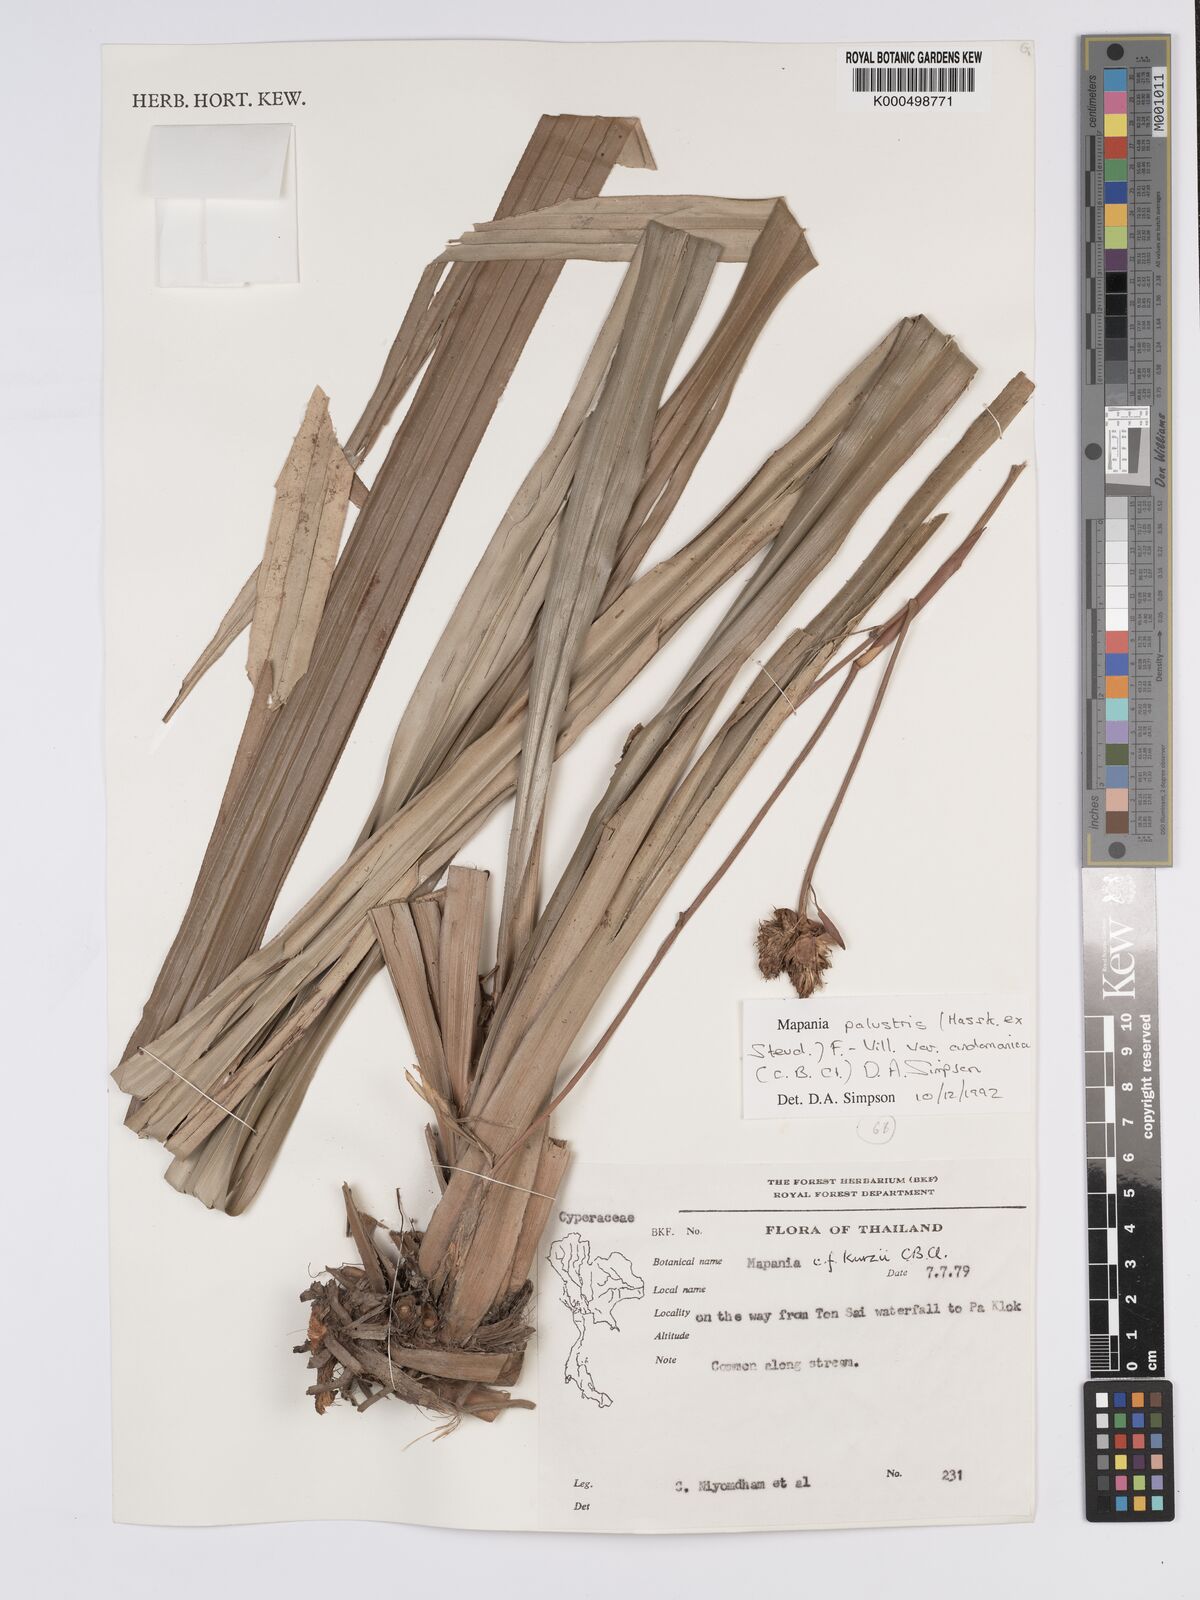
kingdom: Plantae
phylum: Tracheophyta
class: Liliopsida
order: Poales
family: Cyperaceae
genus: Mapania
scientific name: Mapania palustris
